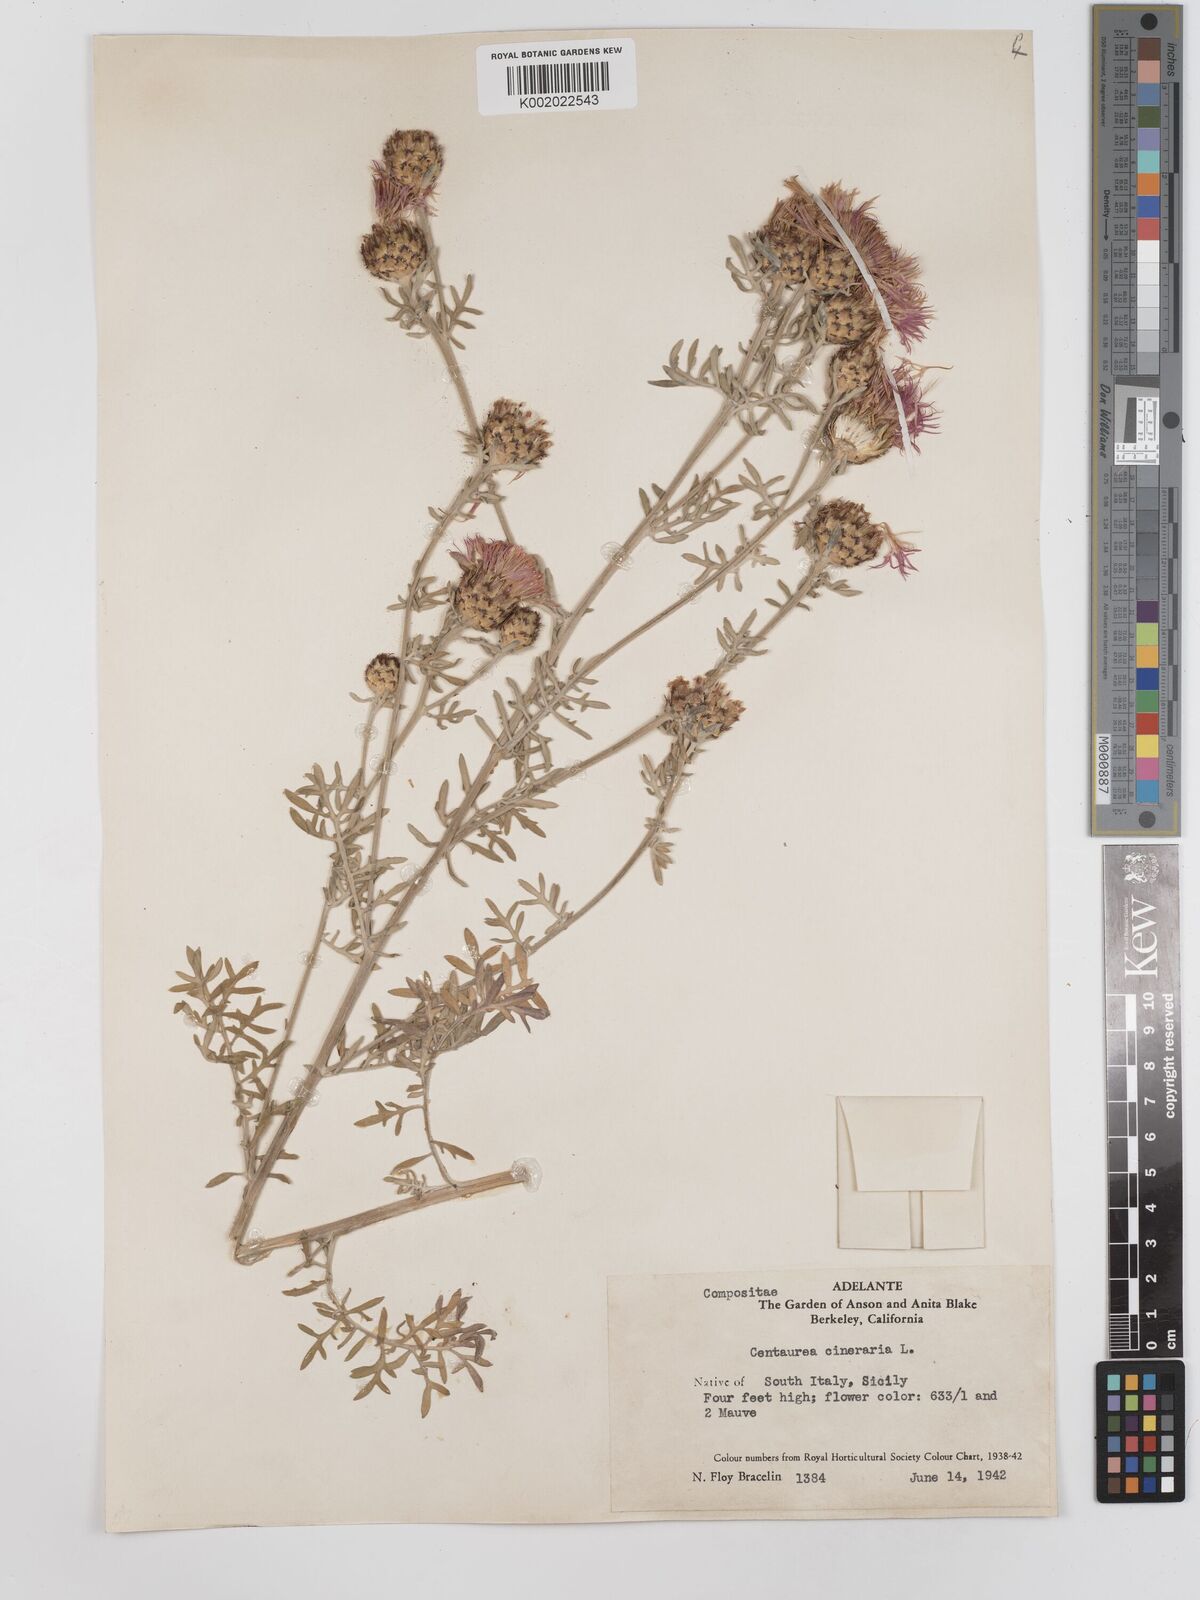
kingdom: Plantae
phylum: Tracheophyta
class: Magnoliopsida
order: Asterales
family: Asteraceae
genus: Centaurea
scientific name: Centaurea cineraria
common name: Dusty miller
